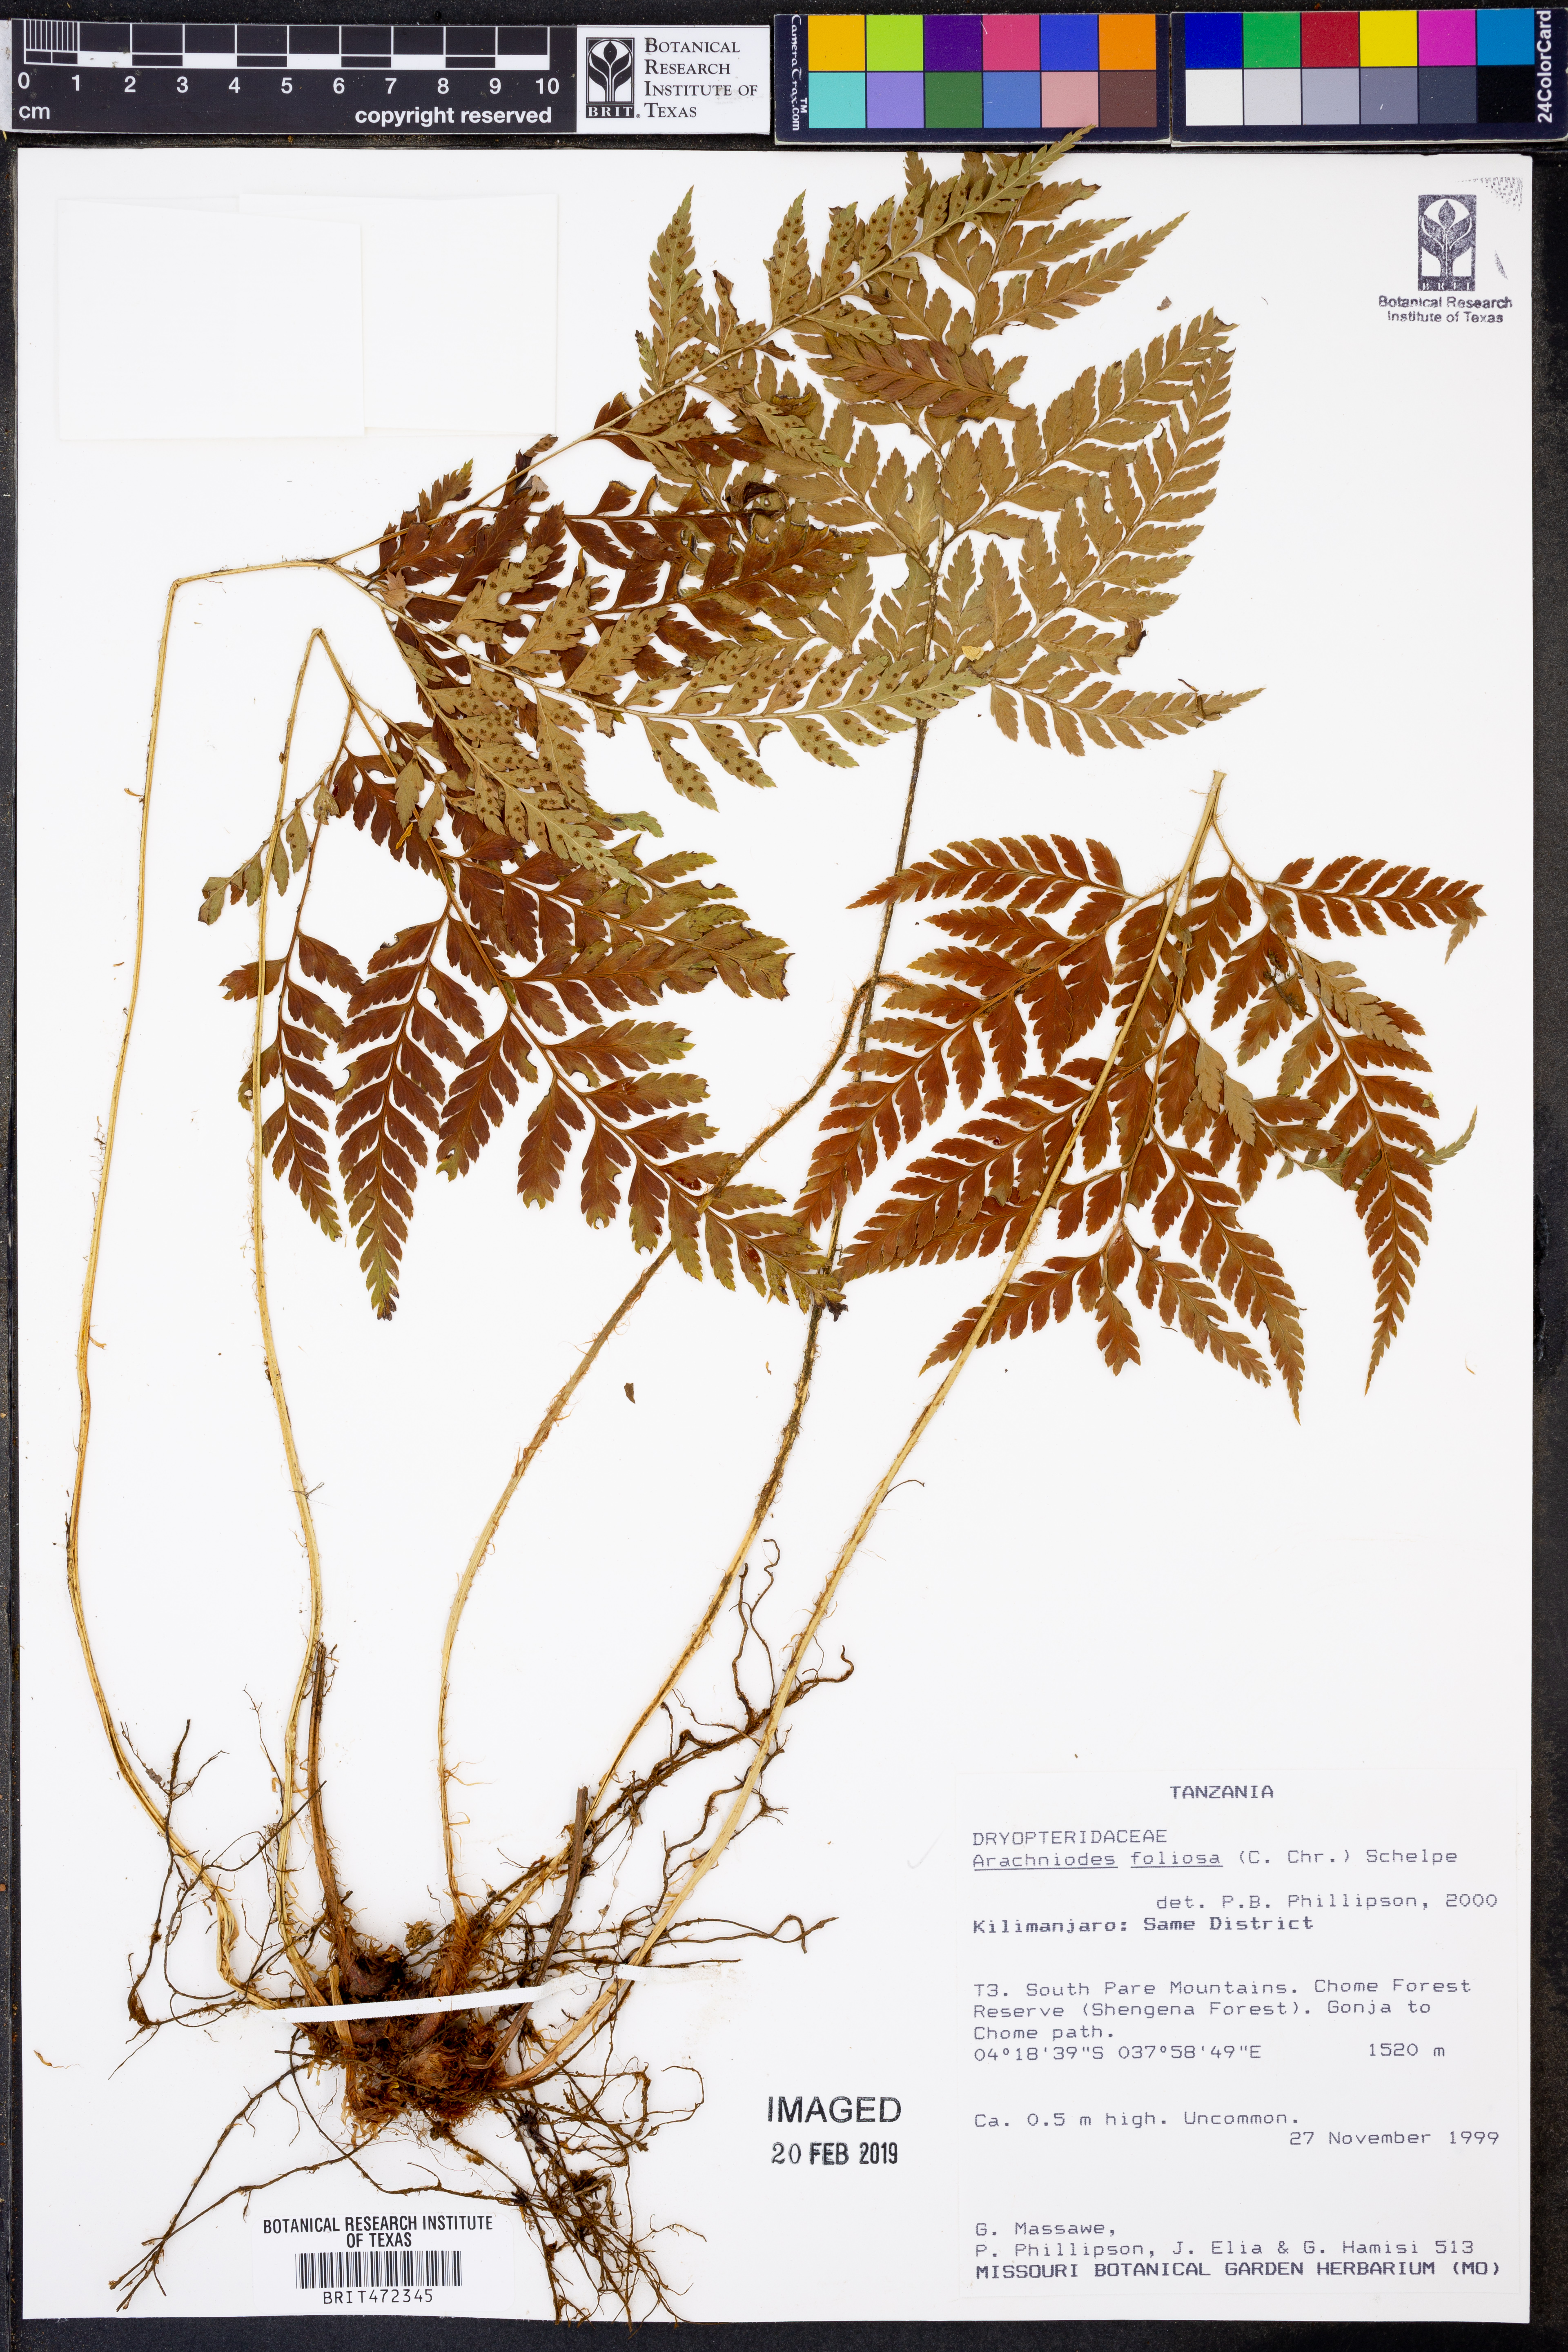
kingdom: Plantae
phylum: Tracheophyta
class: Polypodiopsida
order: Polypodiales
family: Dryopteridaceae
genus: Arachniodes
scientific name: Arachniodes webbiana
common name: Madeira holly fern
